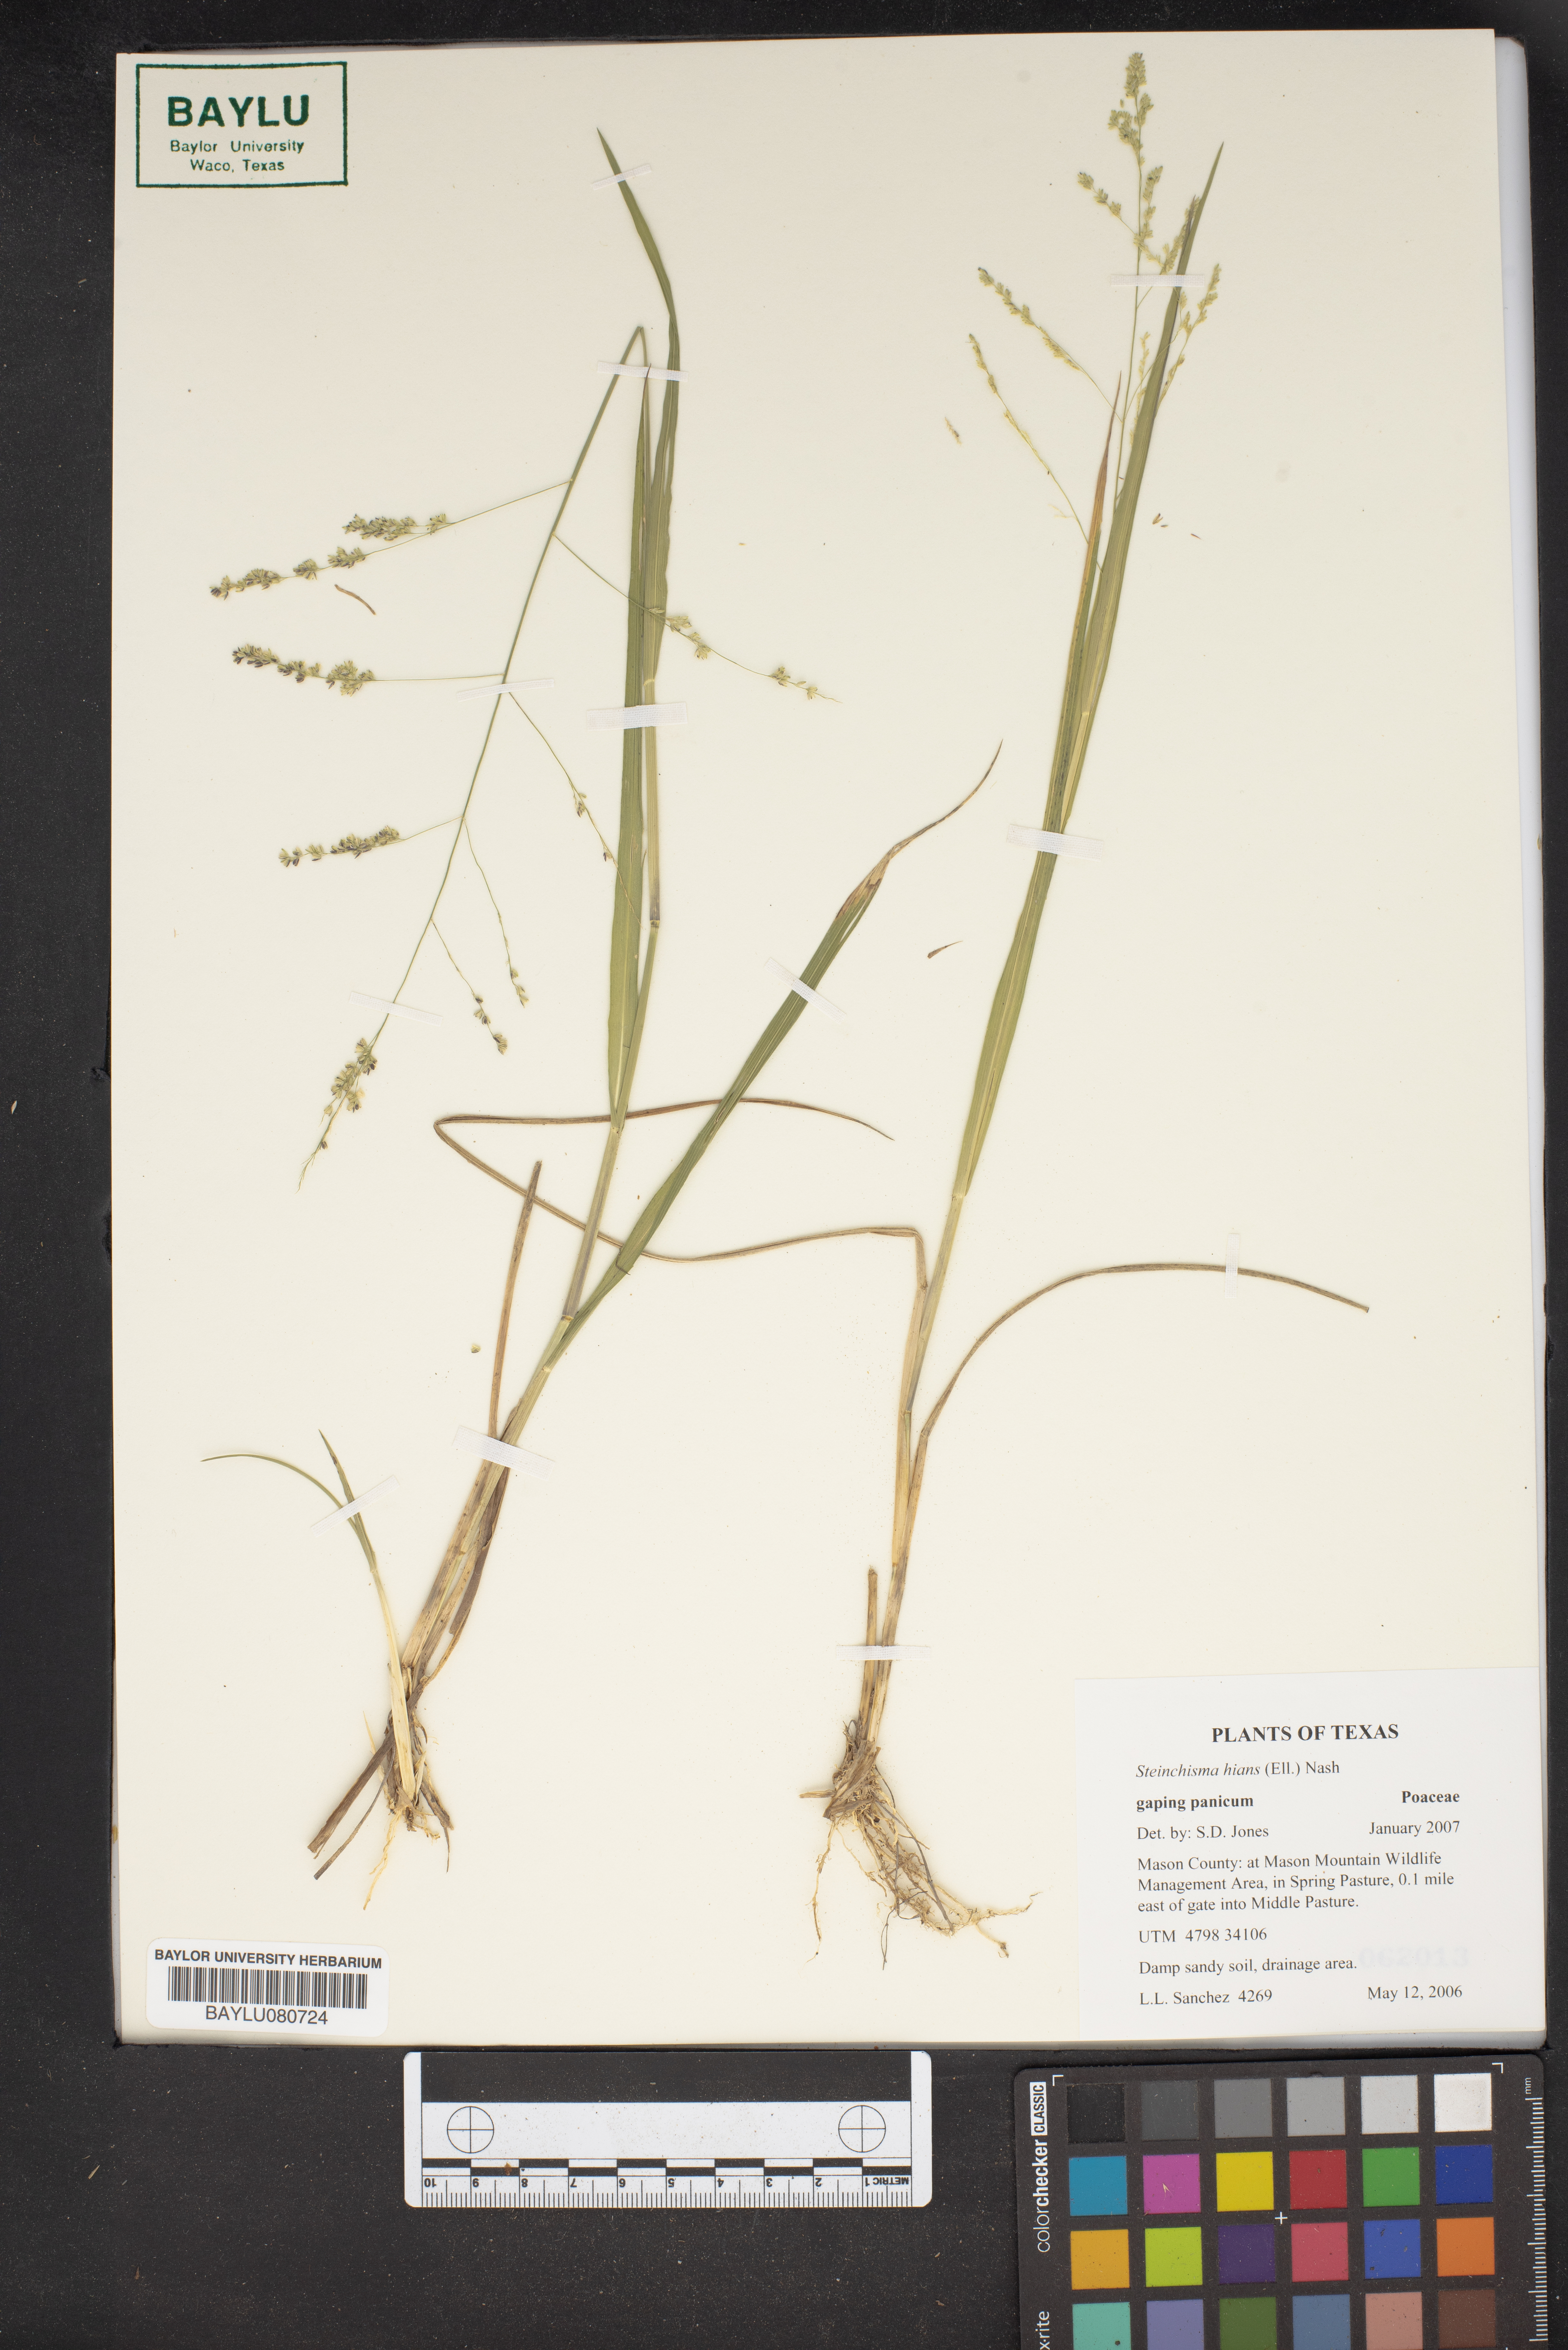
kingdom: Plantae
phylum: Tracheophyta
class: Liliopsida
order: Poales
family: Poaceae
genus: Steinchisma
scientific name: Steinchisma hians
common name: Gaping panic grass
